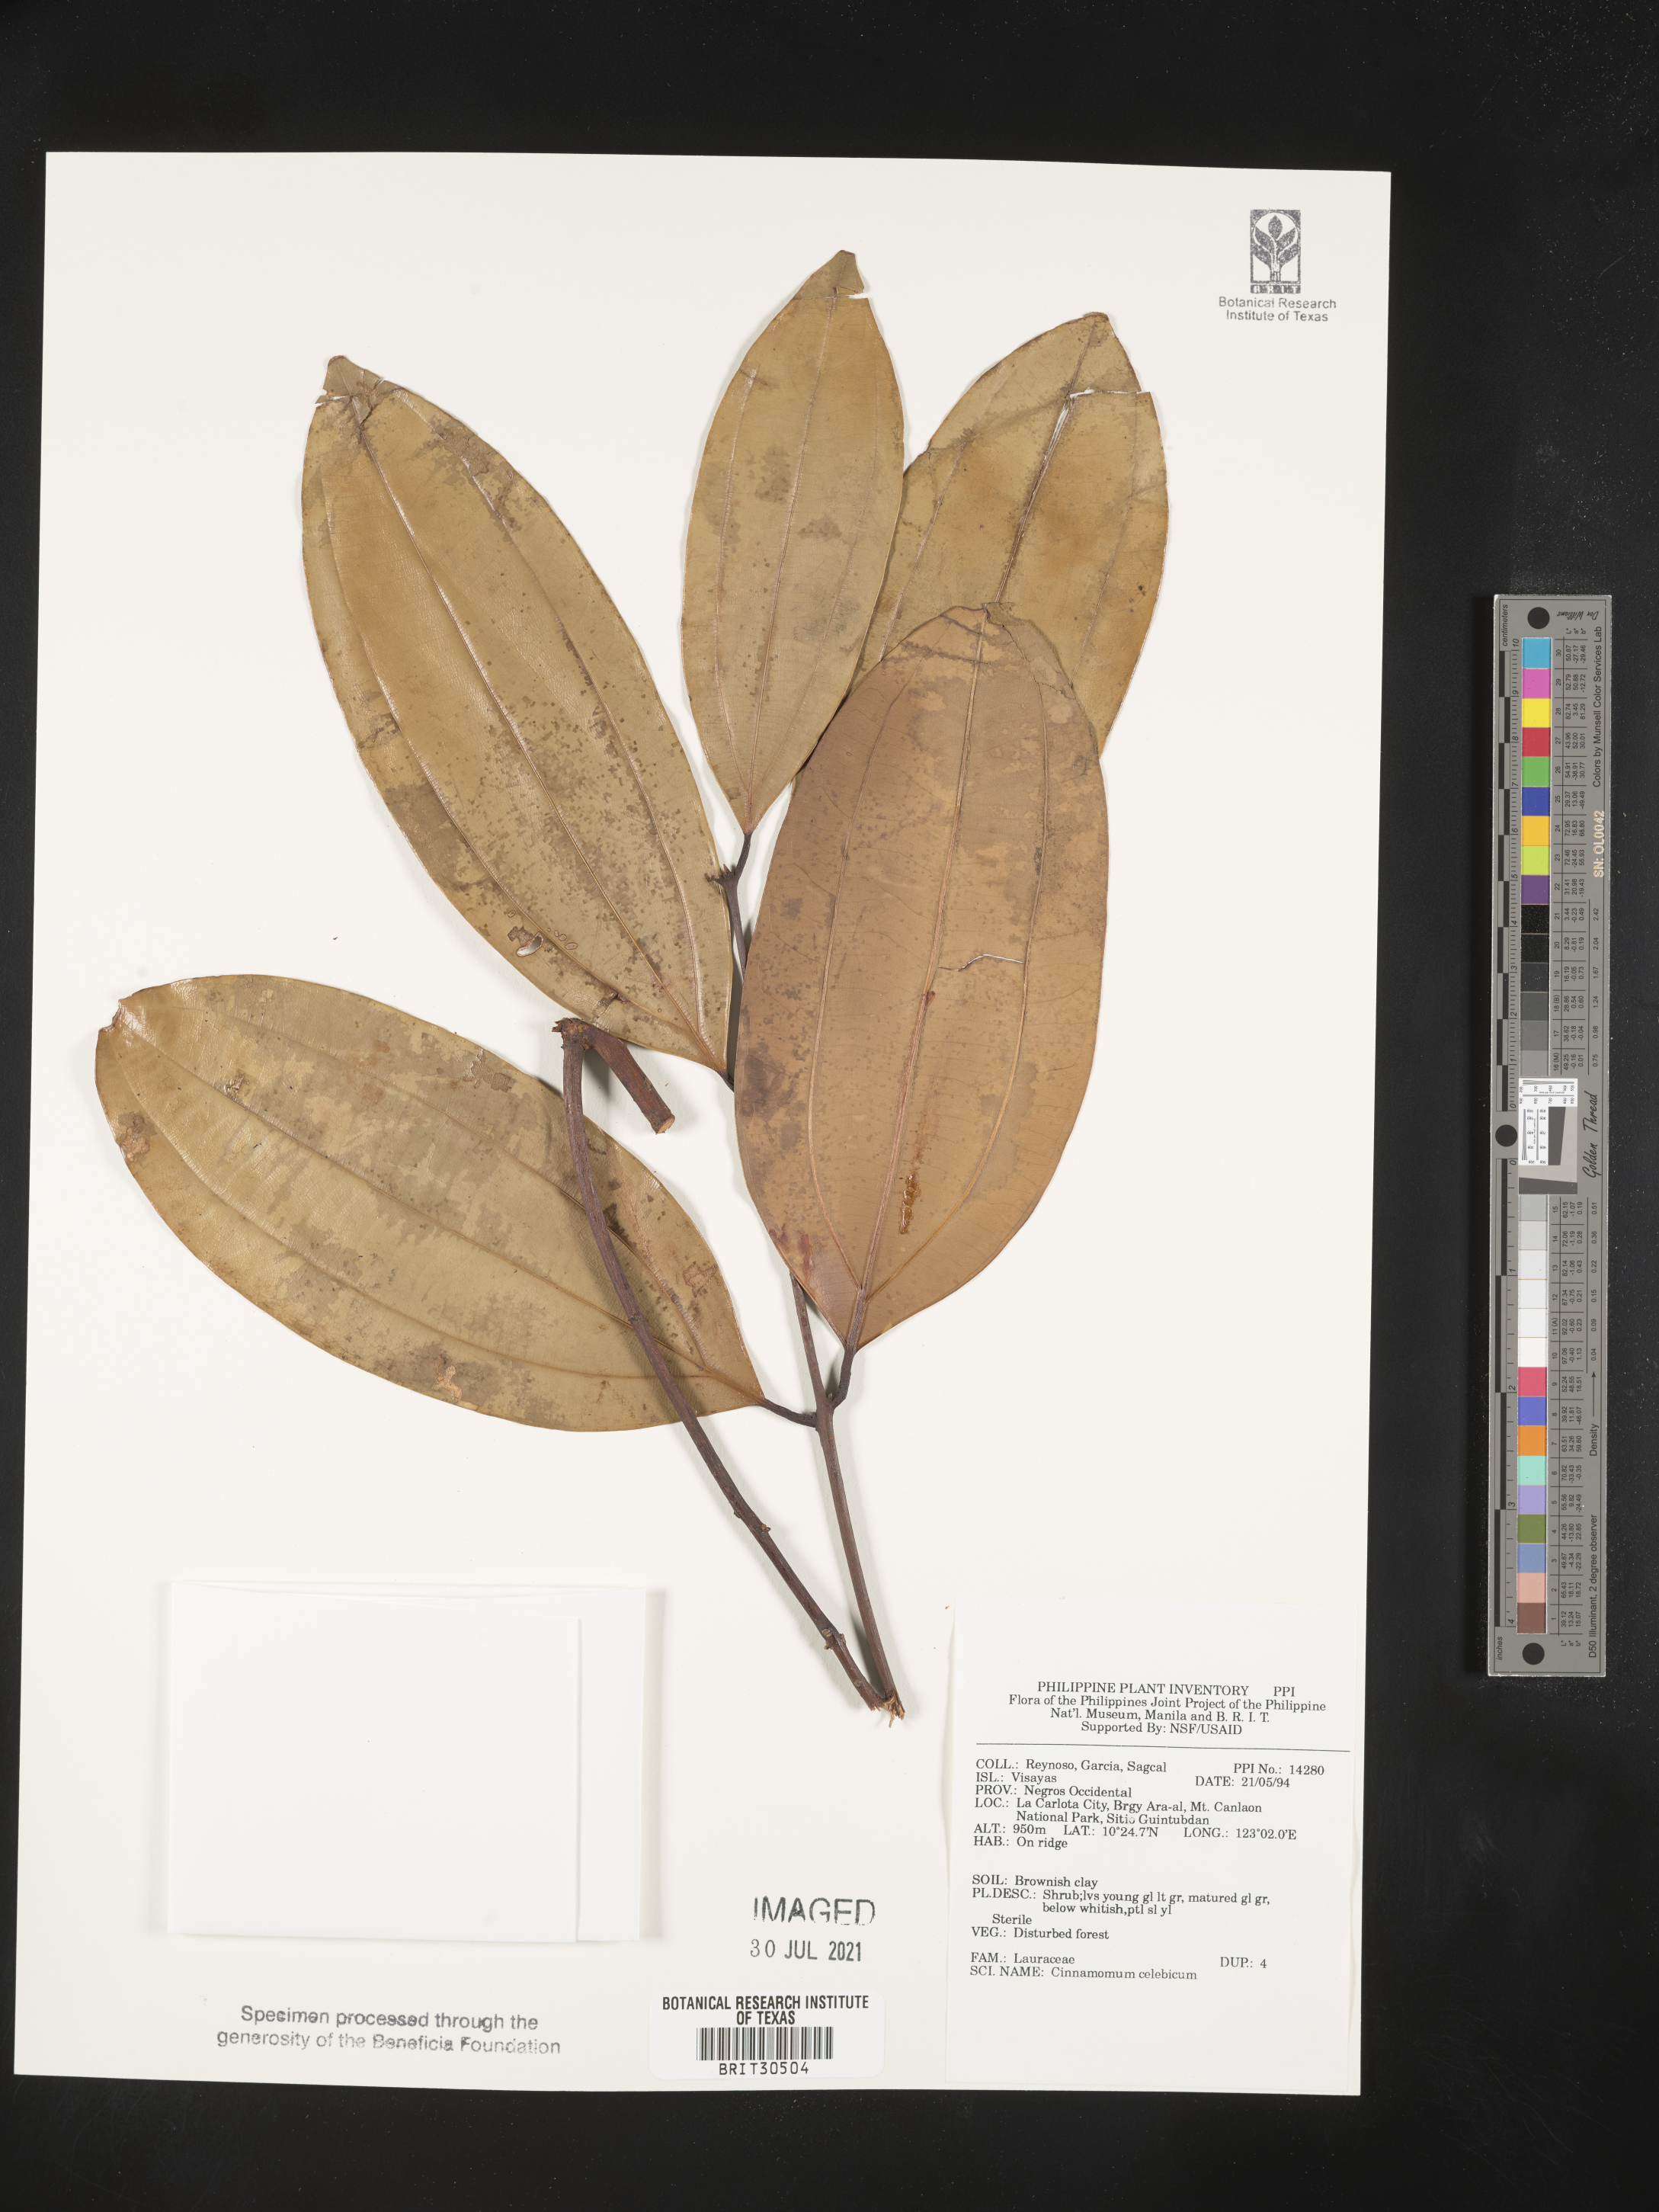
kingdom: Plantae
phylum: Tracheophyta
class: Magnoliopsida
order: Laurales
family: Lauraceae
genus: Cinnamomum
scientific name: Cinnamomum celebicum
